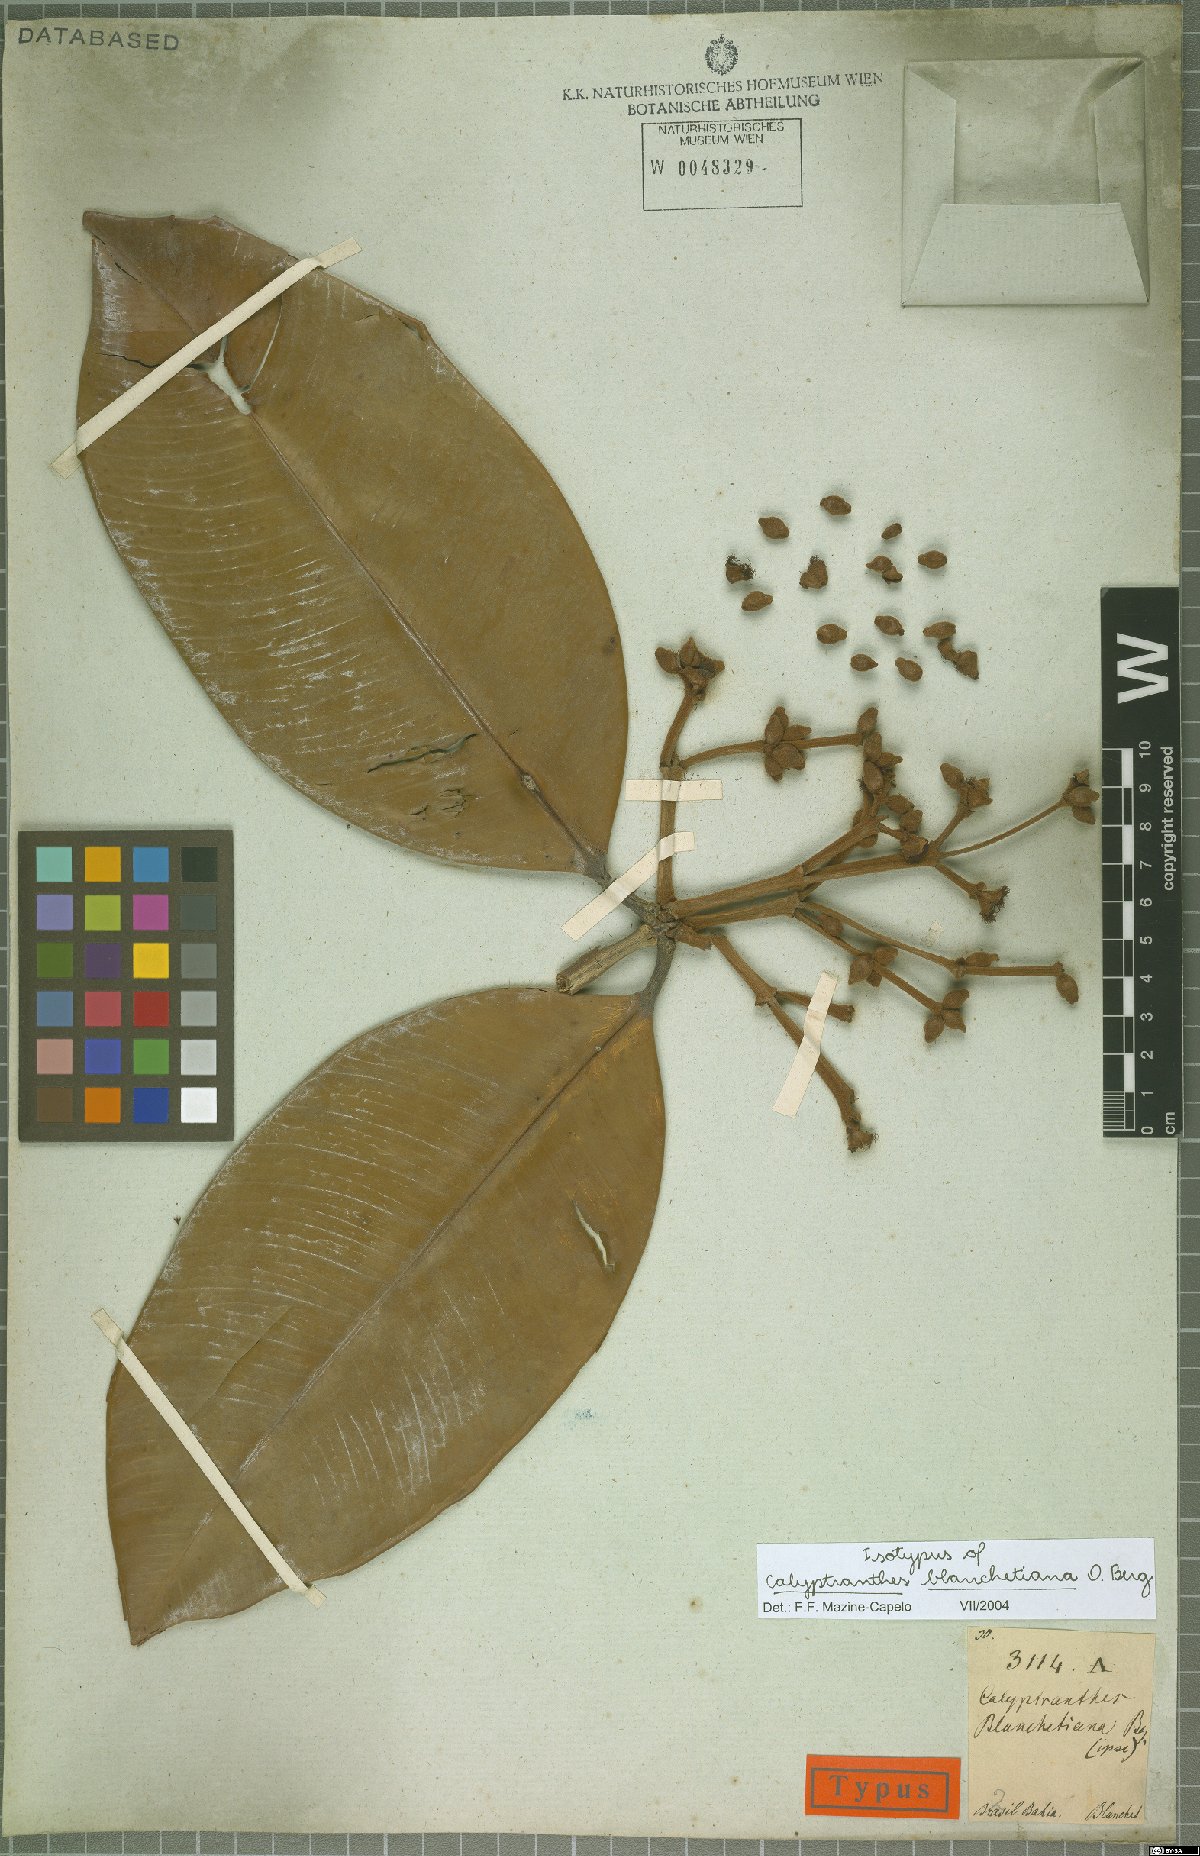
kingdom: Plantae
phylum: Tracheophyta
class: Magnoliopsida
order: Myrtales
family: Myrtaceae
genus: Myrcia
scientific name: Myrcia cymatophylla
